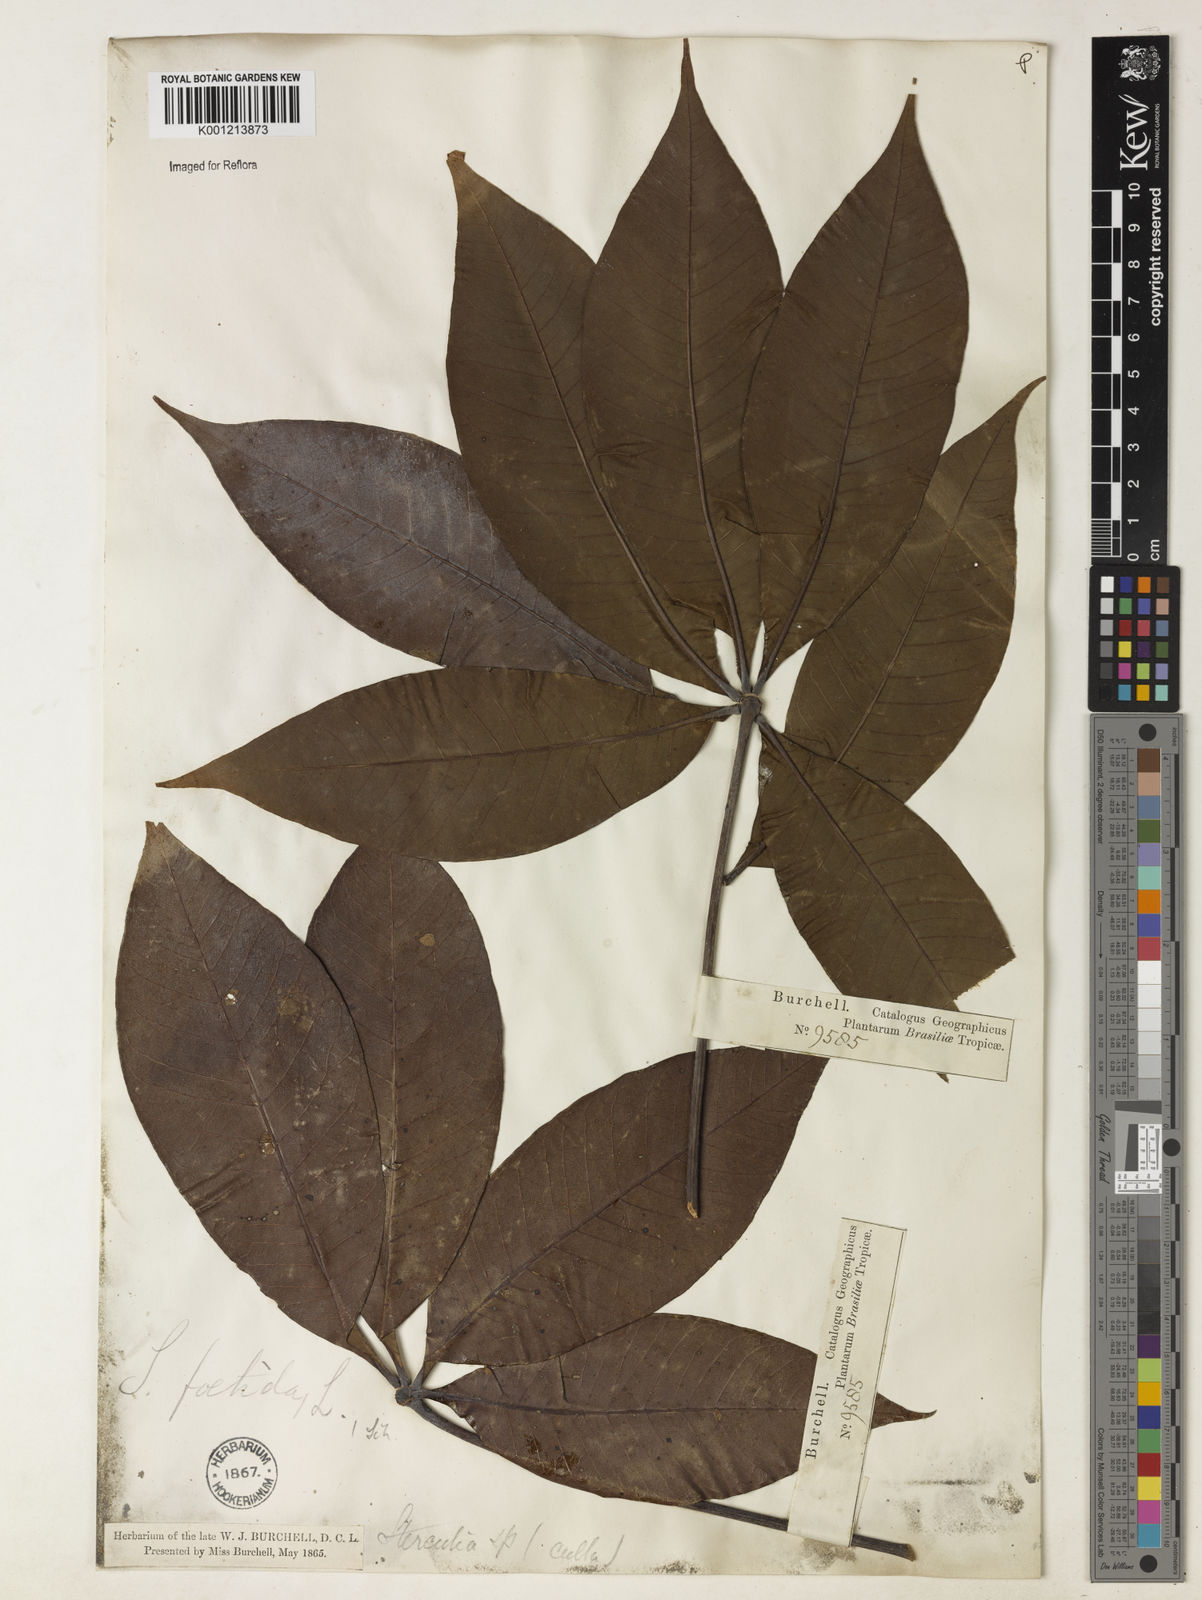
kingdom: Plantae
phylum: Tracheophyta
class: Magnoliopsida
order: Malvales
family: Malvaceae
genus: Sterculia
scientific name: Sterculia foetida
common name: Hazel sterculia
